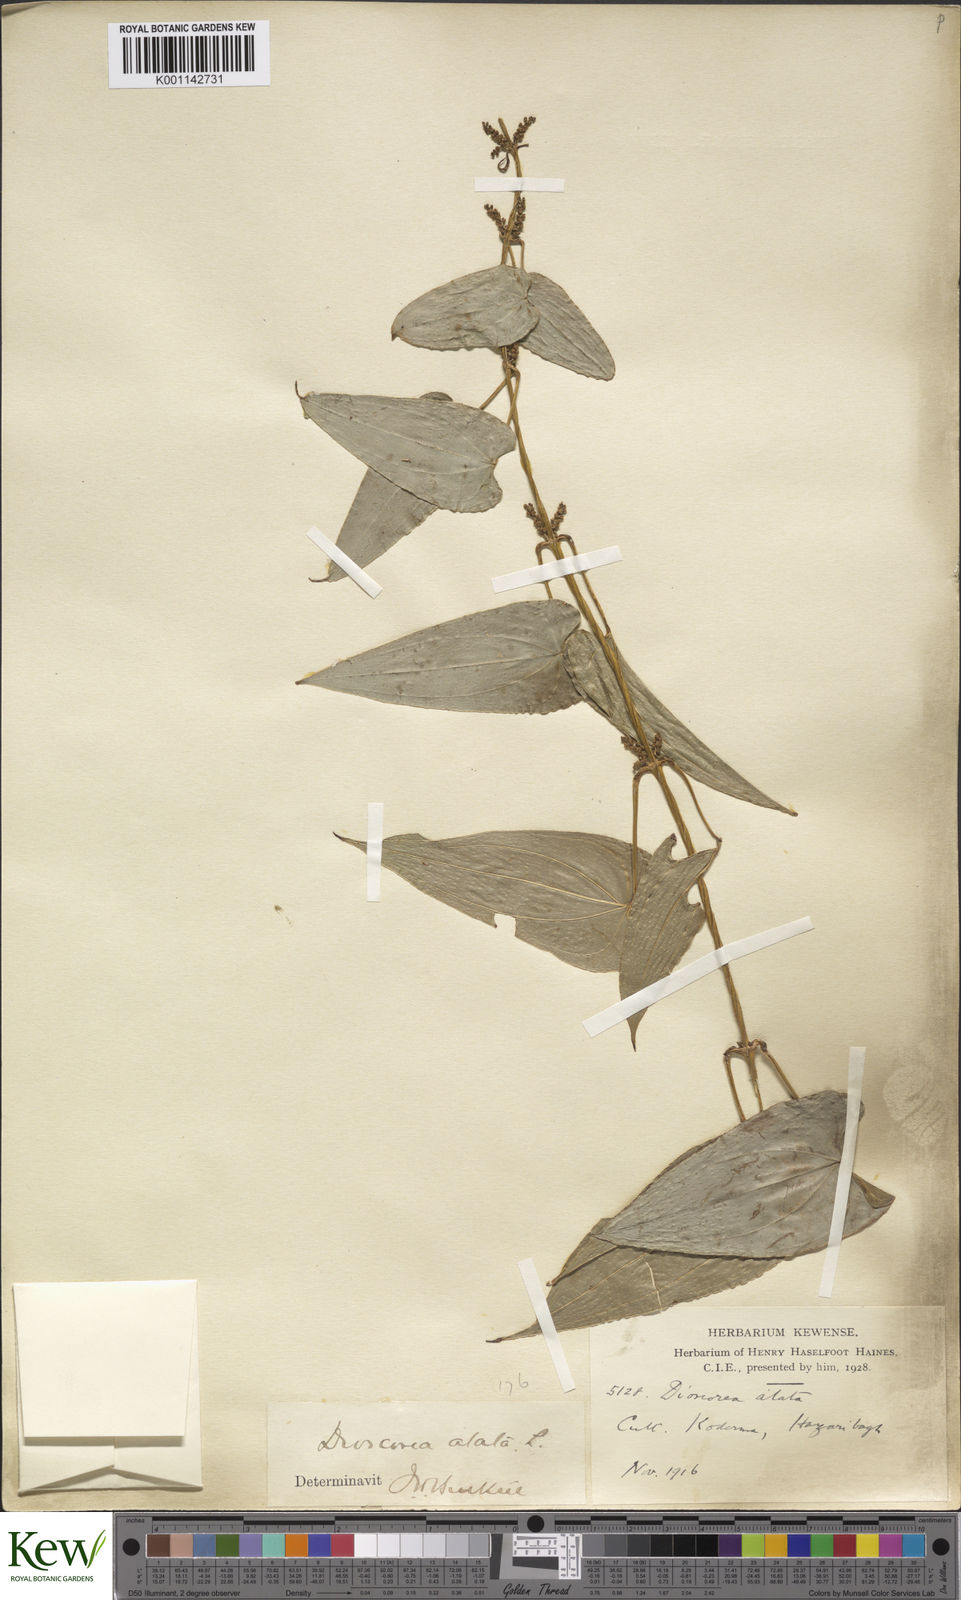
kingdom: Plantae
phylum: Tracheophyta
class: Liliopsida
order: Dioscoreales
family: Dioscoreaceae
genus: Dioscorea
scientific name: Dioscorea alata
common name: Water yam
